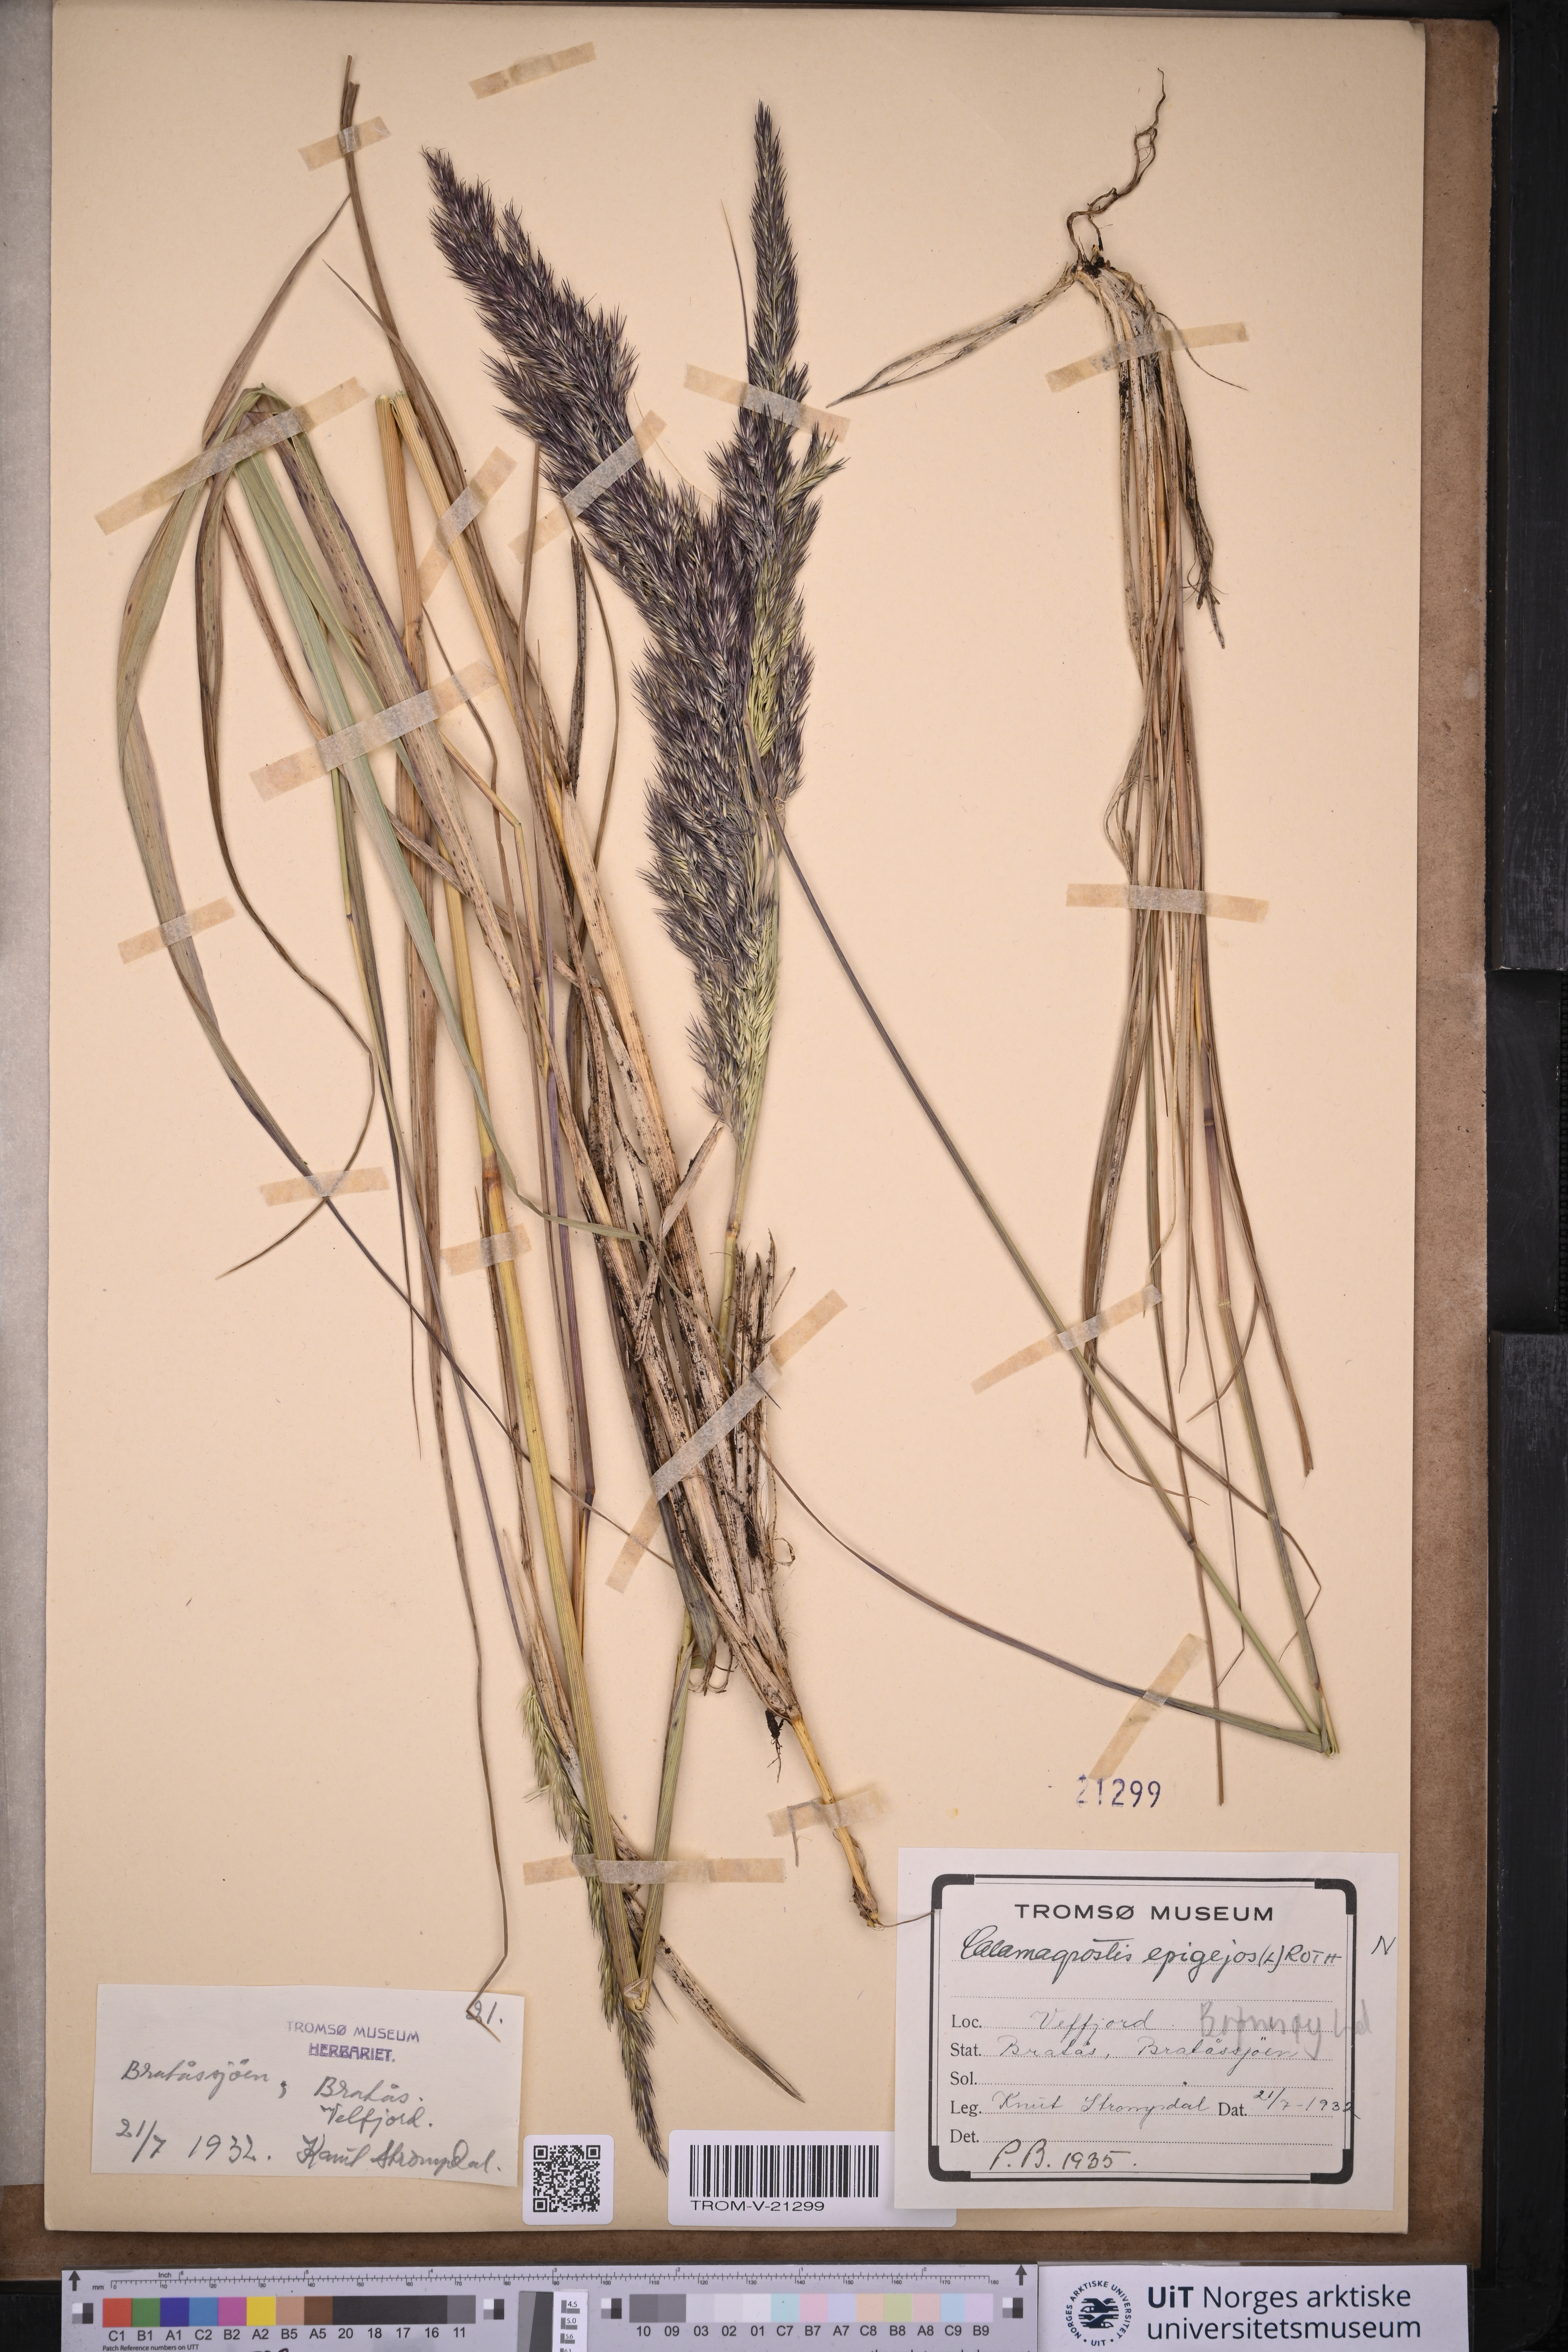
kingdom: Plantae
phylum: Tracheophyta
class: Liliopsida
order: Poales
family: Poaceae
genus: Calamagrostis
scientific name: Calamagrostis epigejos
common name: Wood small-reed
